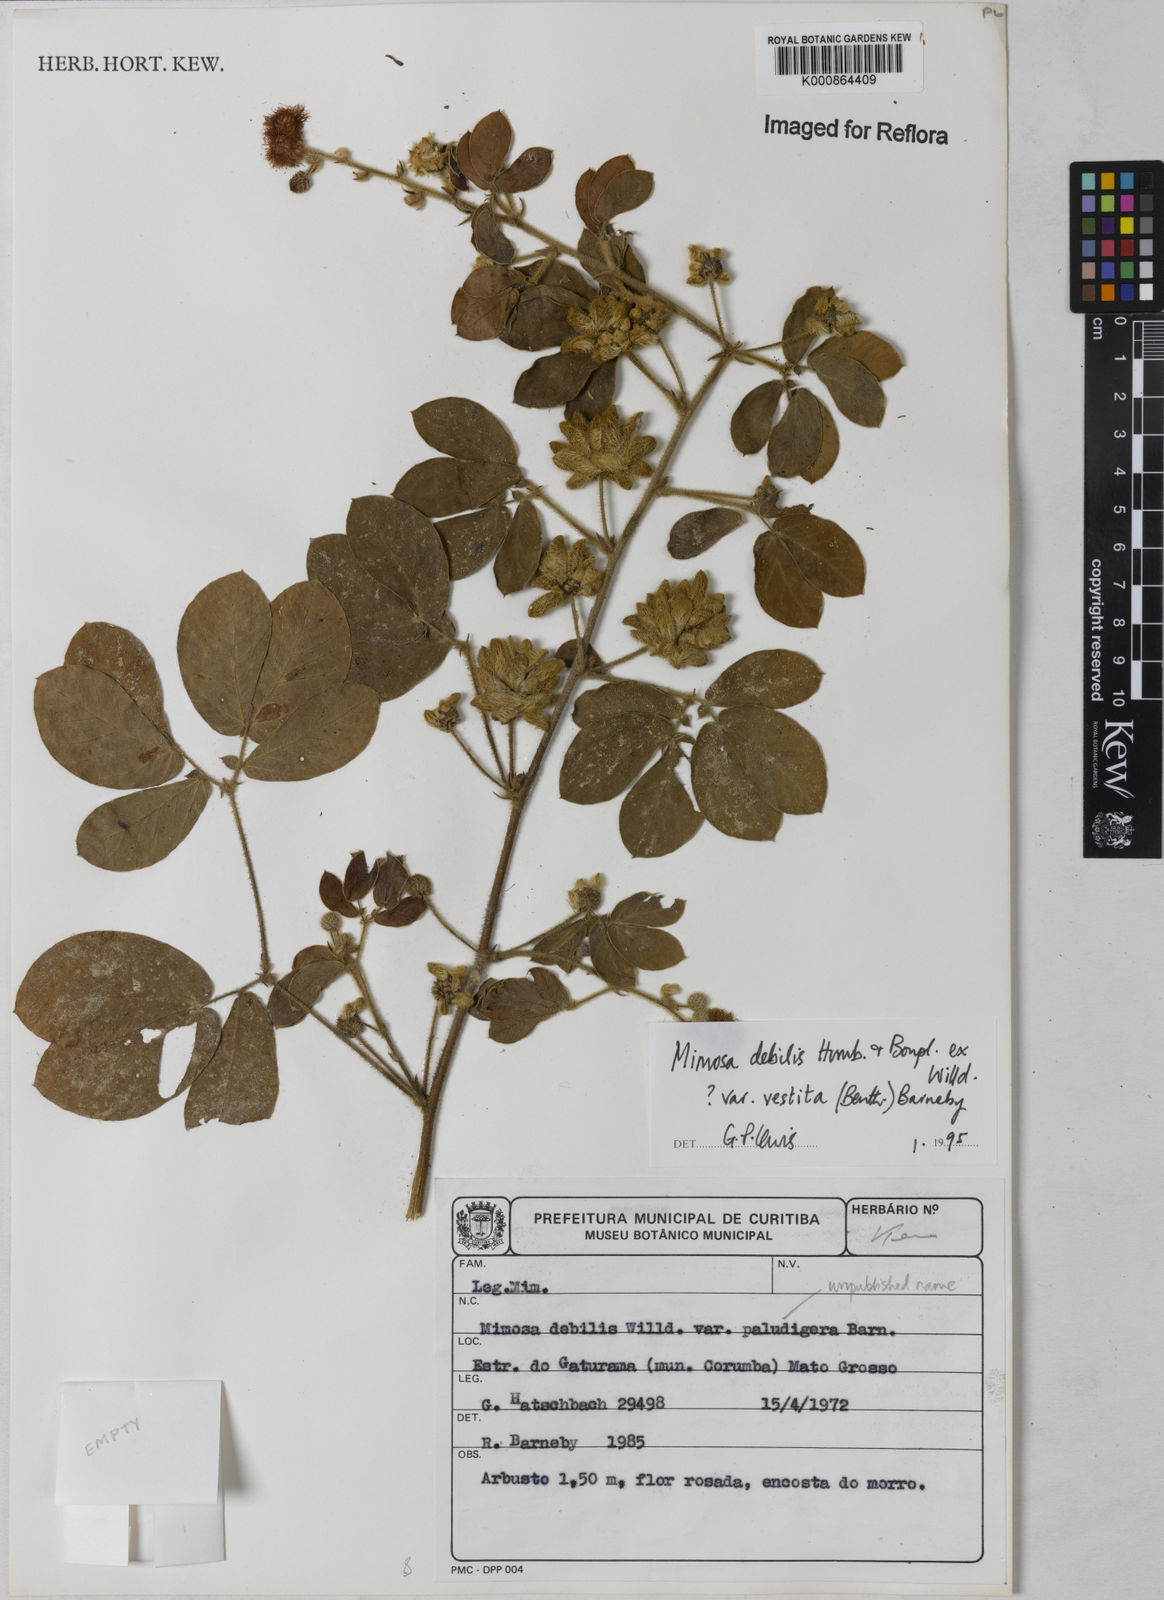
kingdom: Plantae
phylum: Tracheophyta
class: Magnoliopsida
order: Fabales
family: Fabaceae
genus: Mimosa
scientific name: Mimosa debilis
